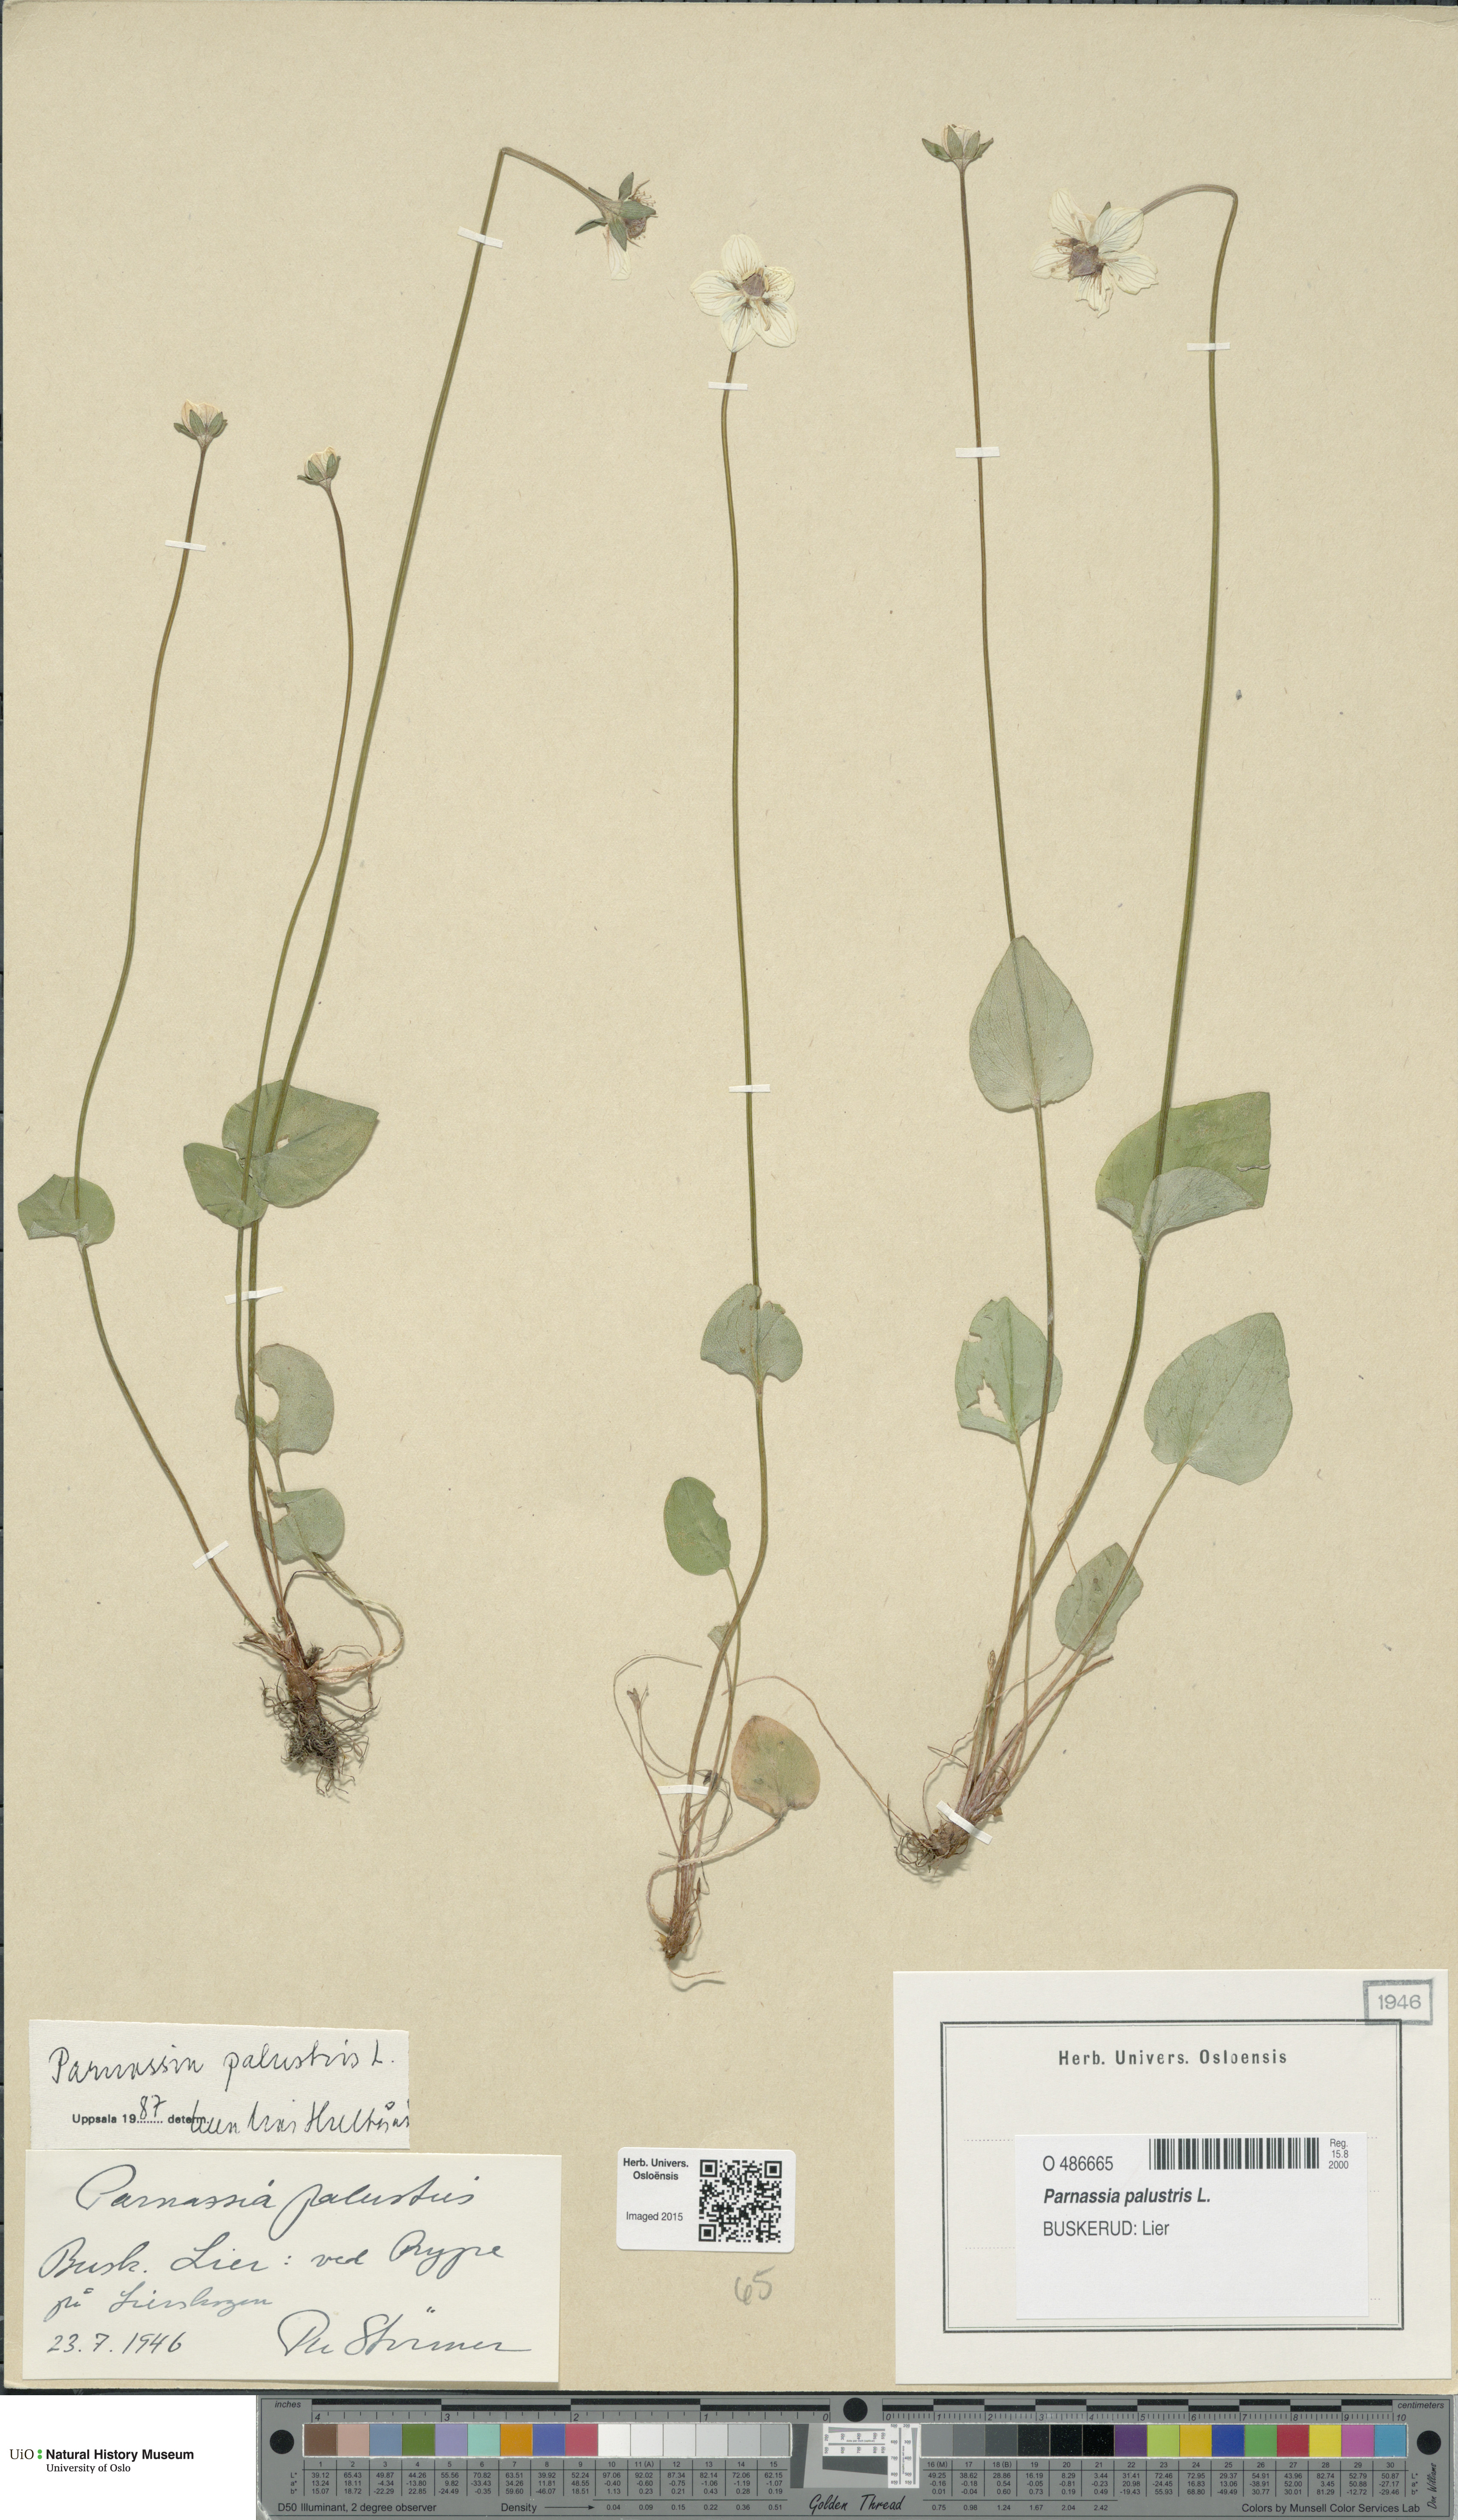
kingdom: Plantae
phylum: Tracheophyta
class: Magnoliopsida
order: Celastrales
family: Parnassiaceae
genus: Parnassia
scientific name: Parnassia palustris
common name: Grass-of-parnassus
